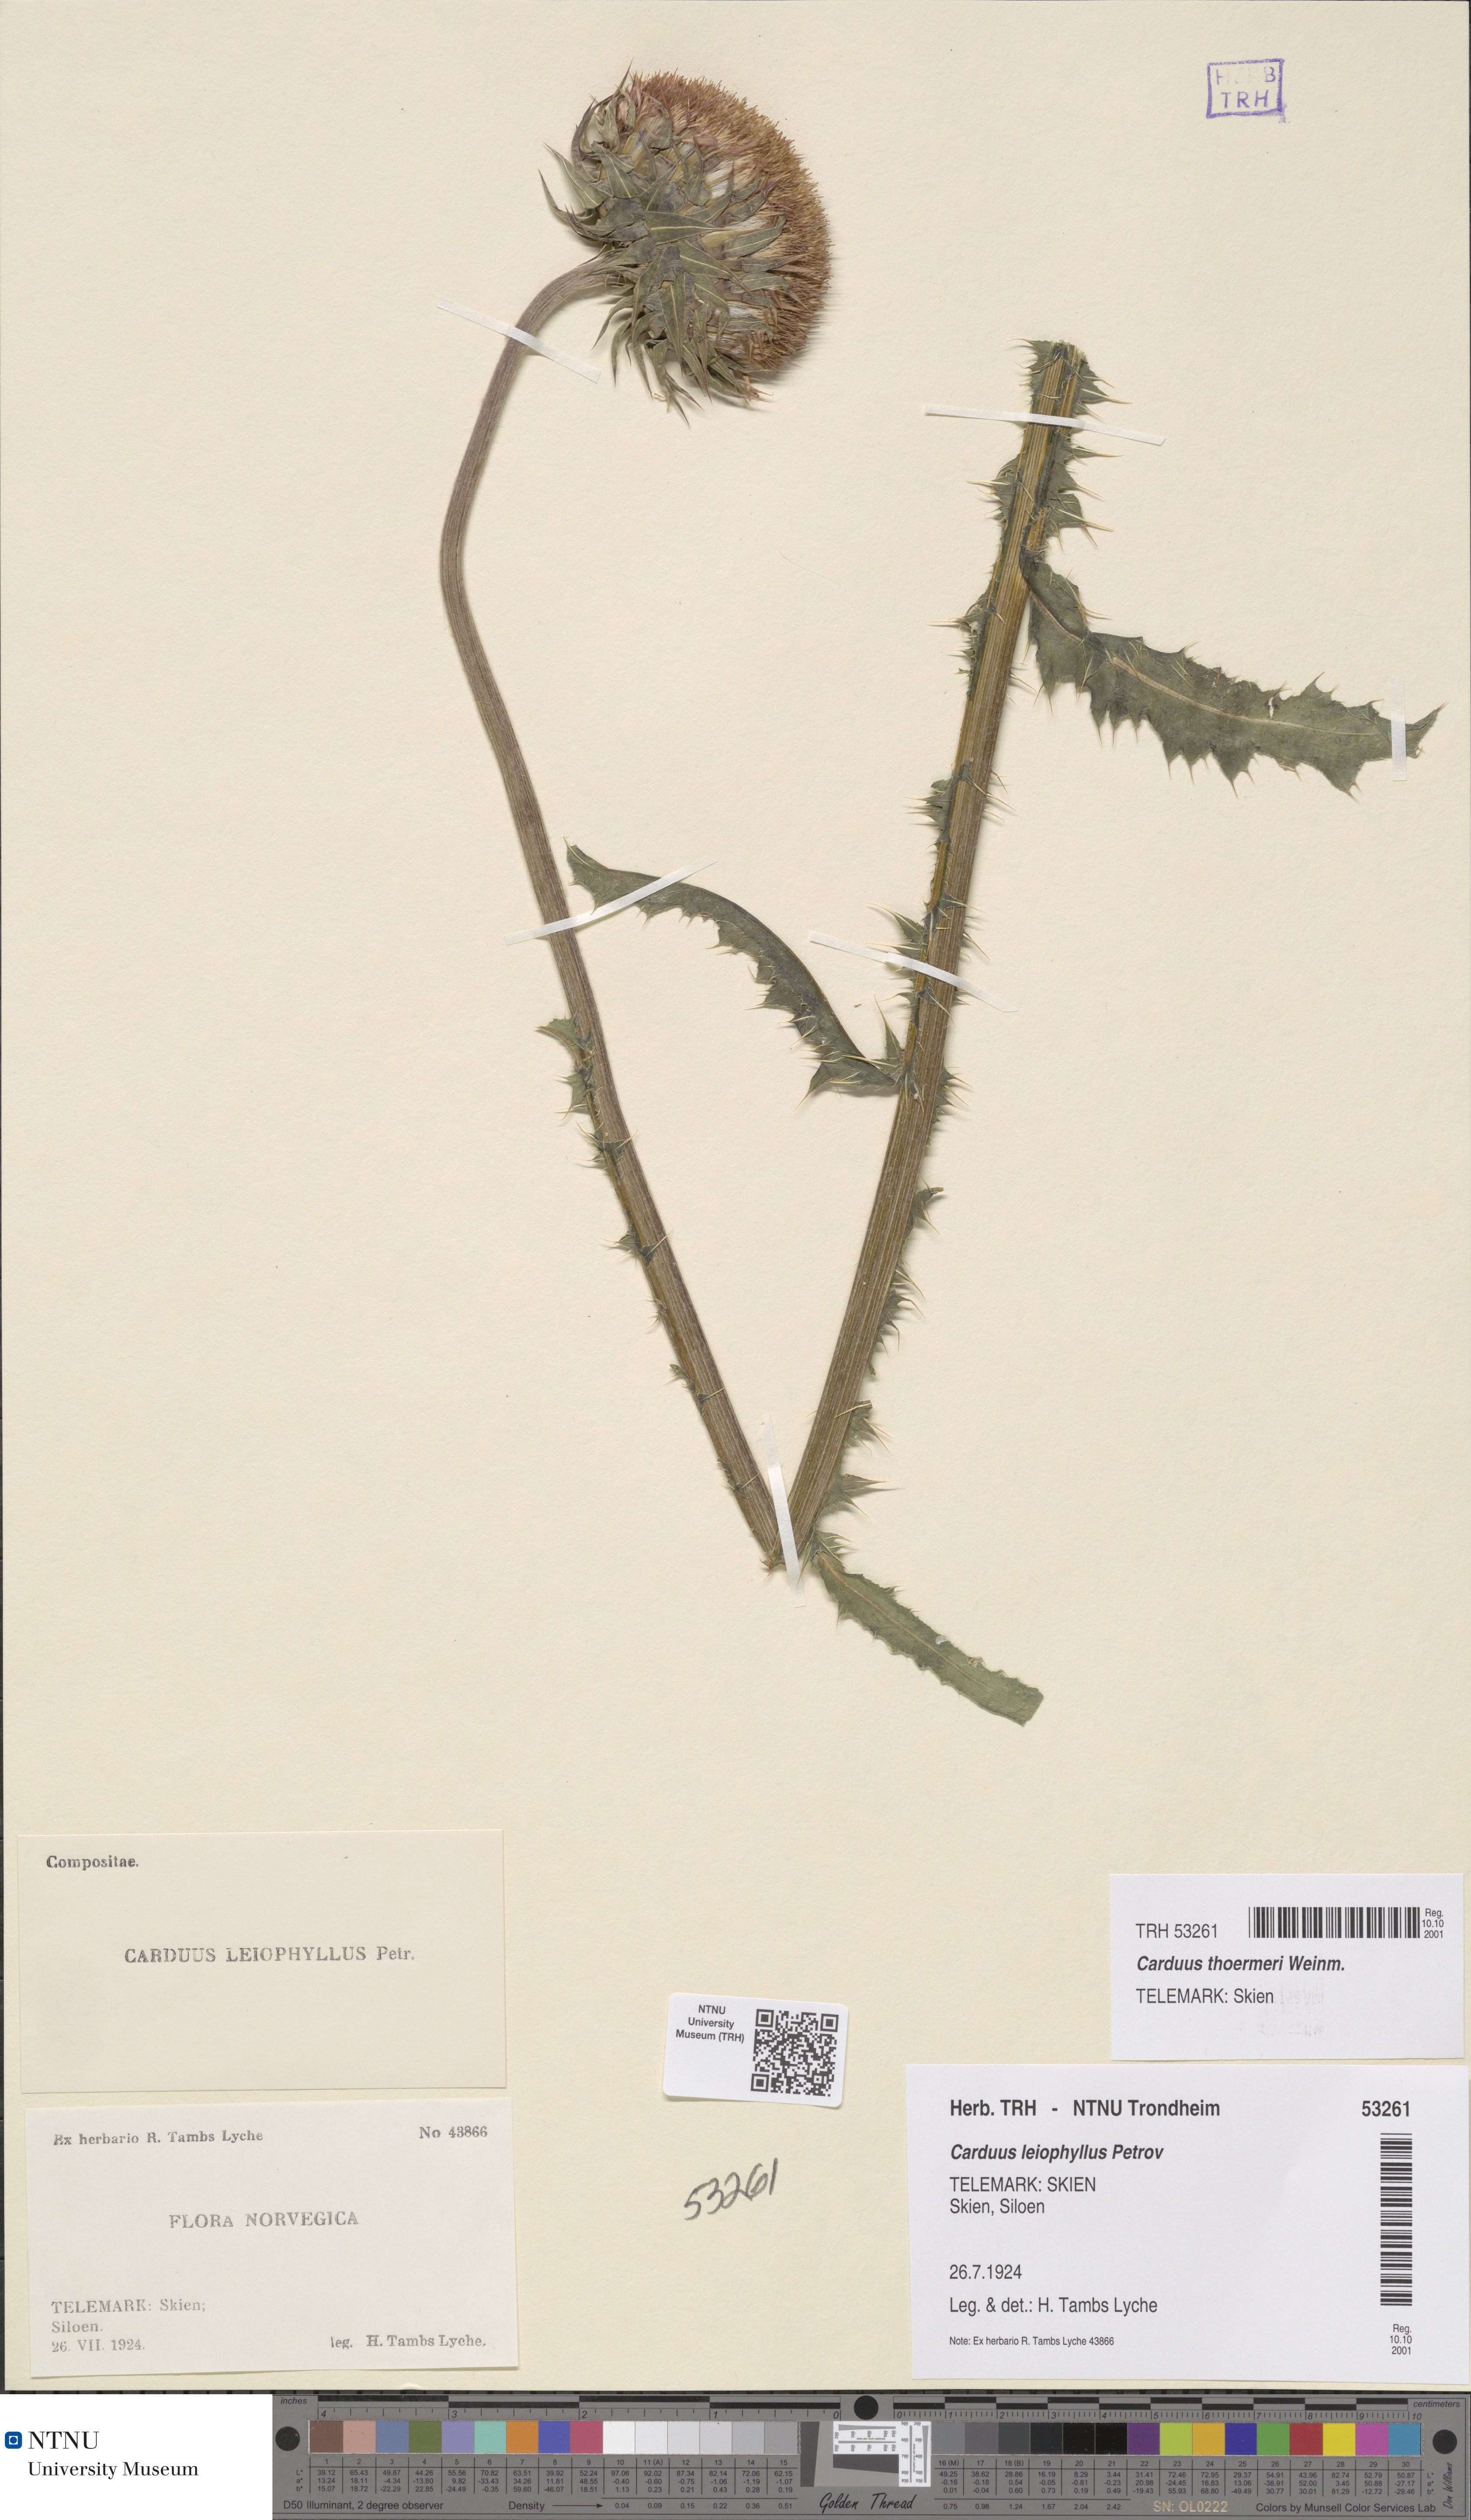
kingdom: Plantae
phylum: Tracheophyta
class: Magnoliopsida
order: Asterales
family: Asteraceae
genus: Carduus
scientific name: Carduus nutans
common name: Musk thistle
